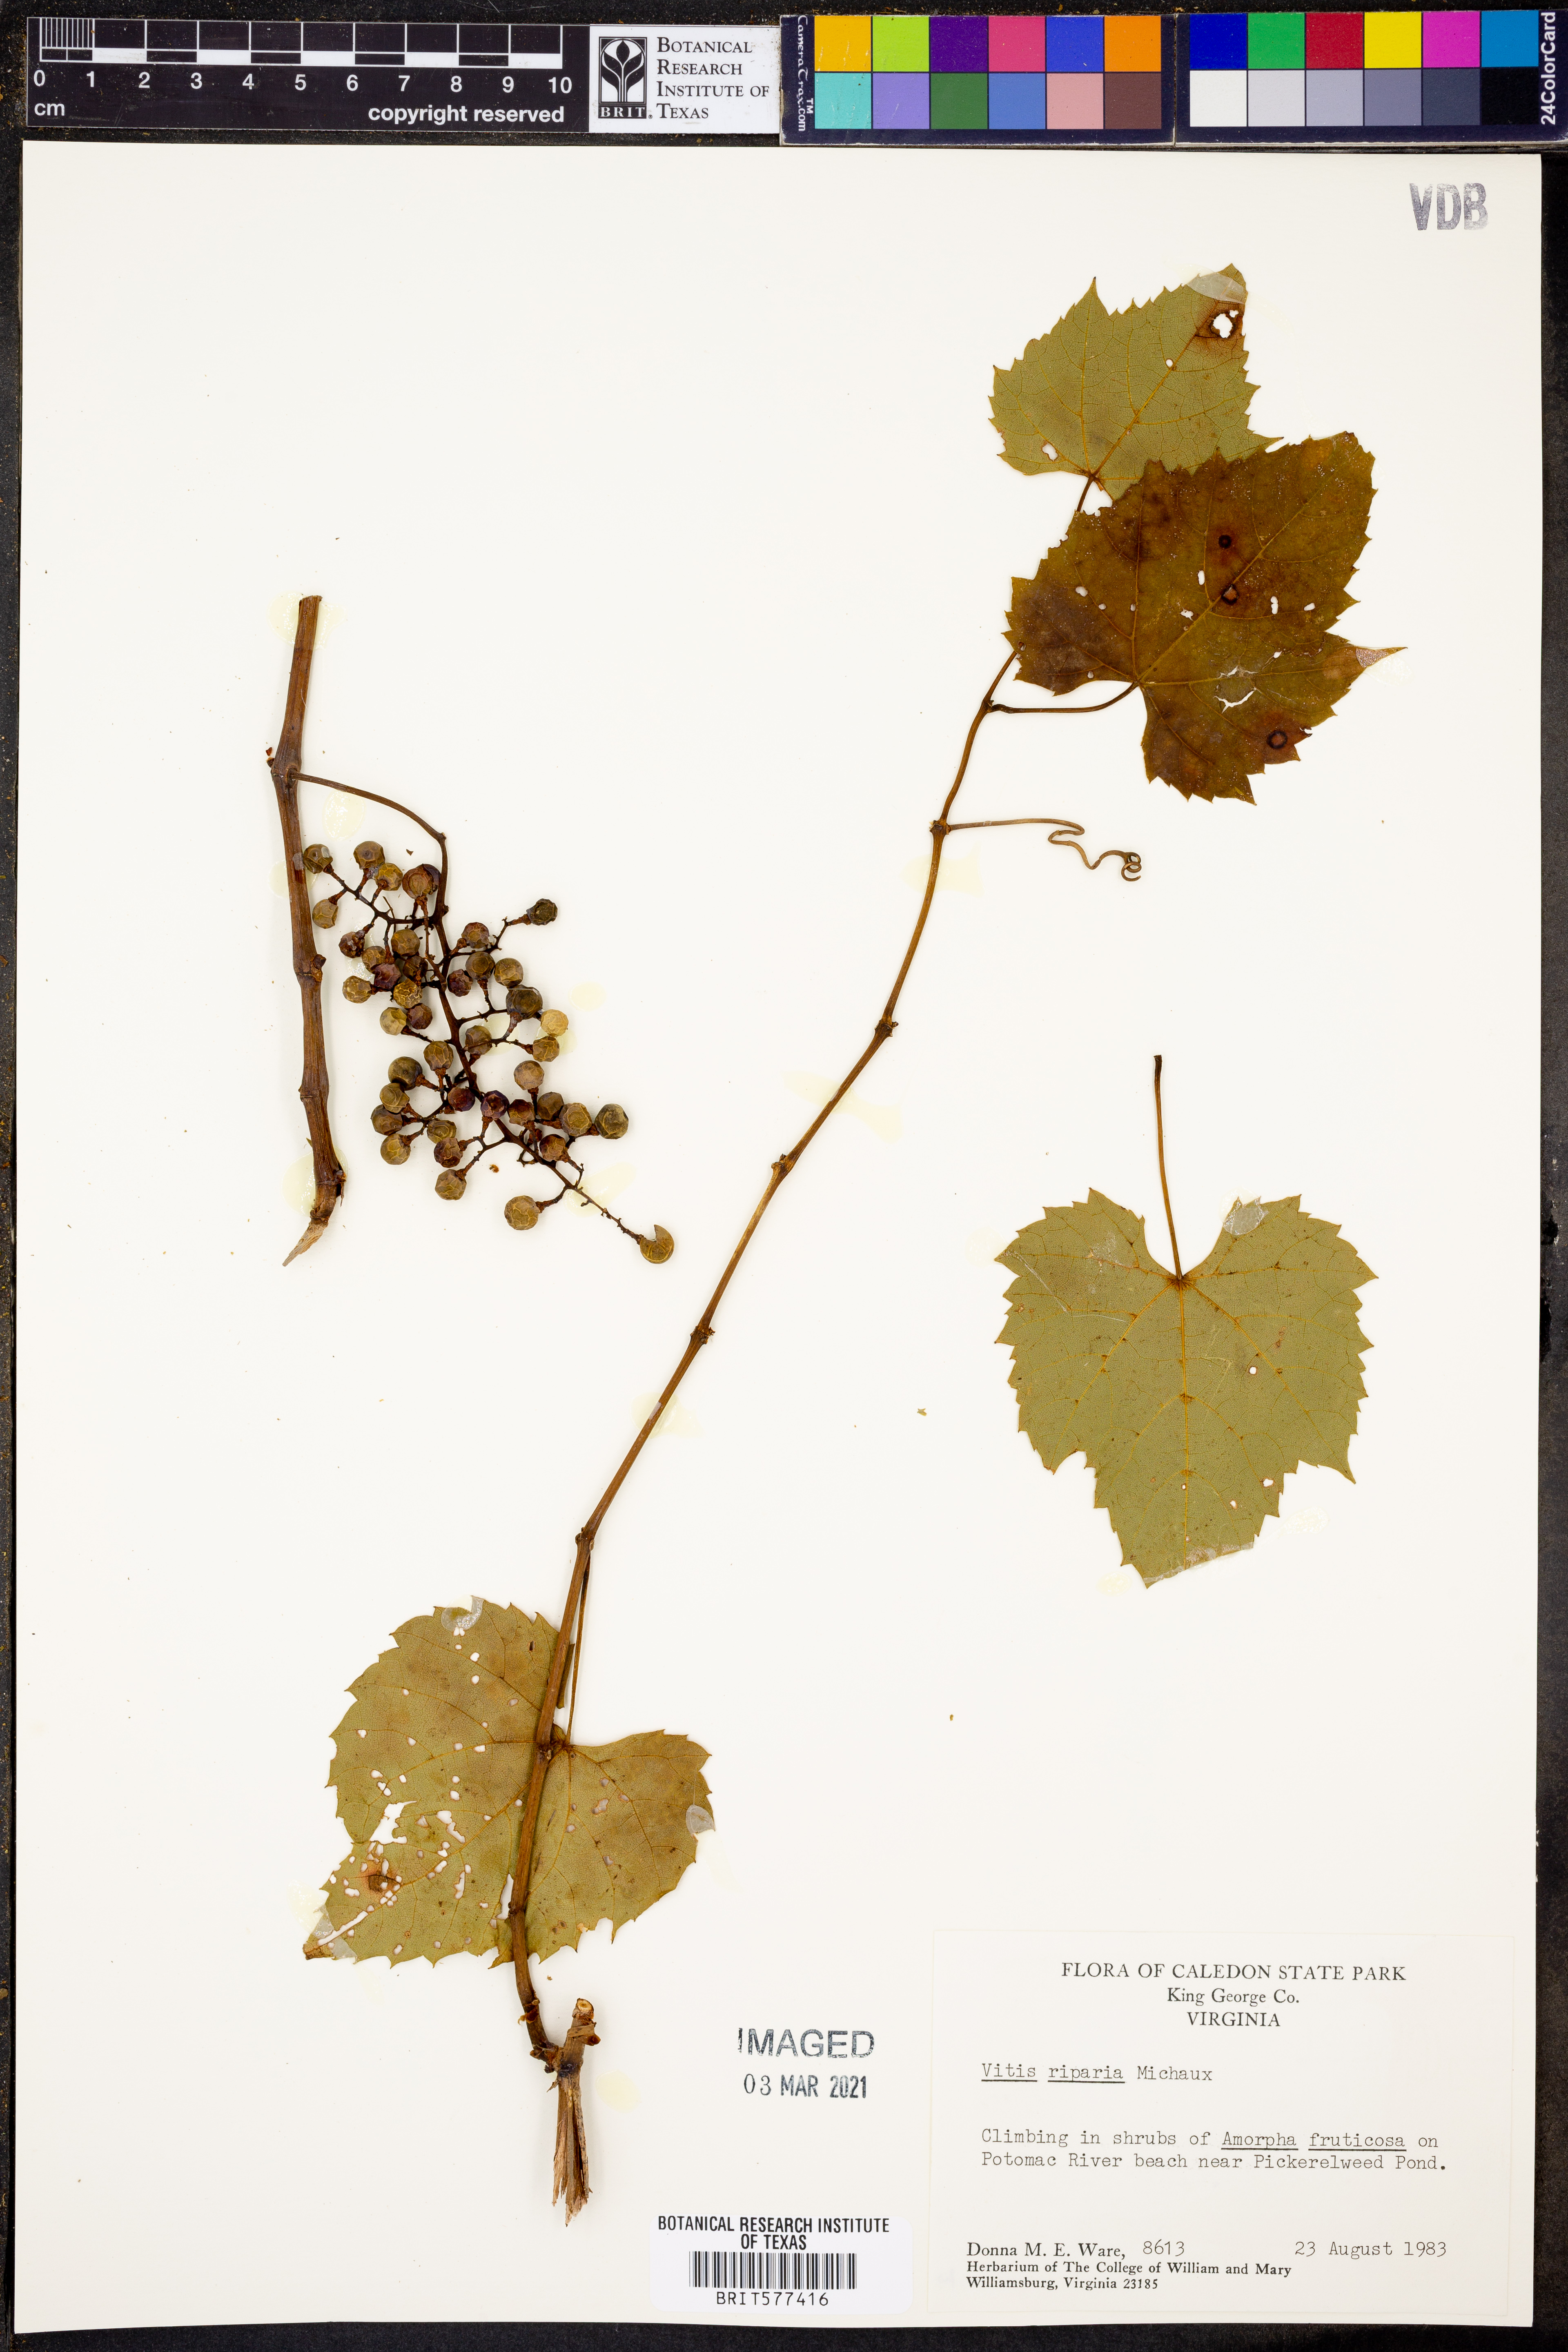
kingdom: Plantae
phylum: Tracheophyta
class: Magnoliopsida
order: Vitales
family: Vitaceae
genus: Vitis
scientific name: Vitis riparia
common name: Frost grape
